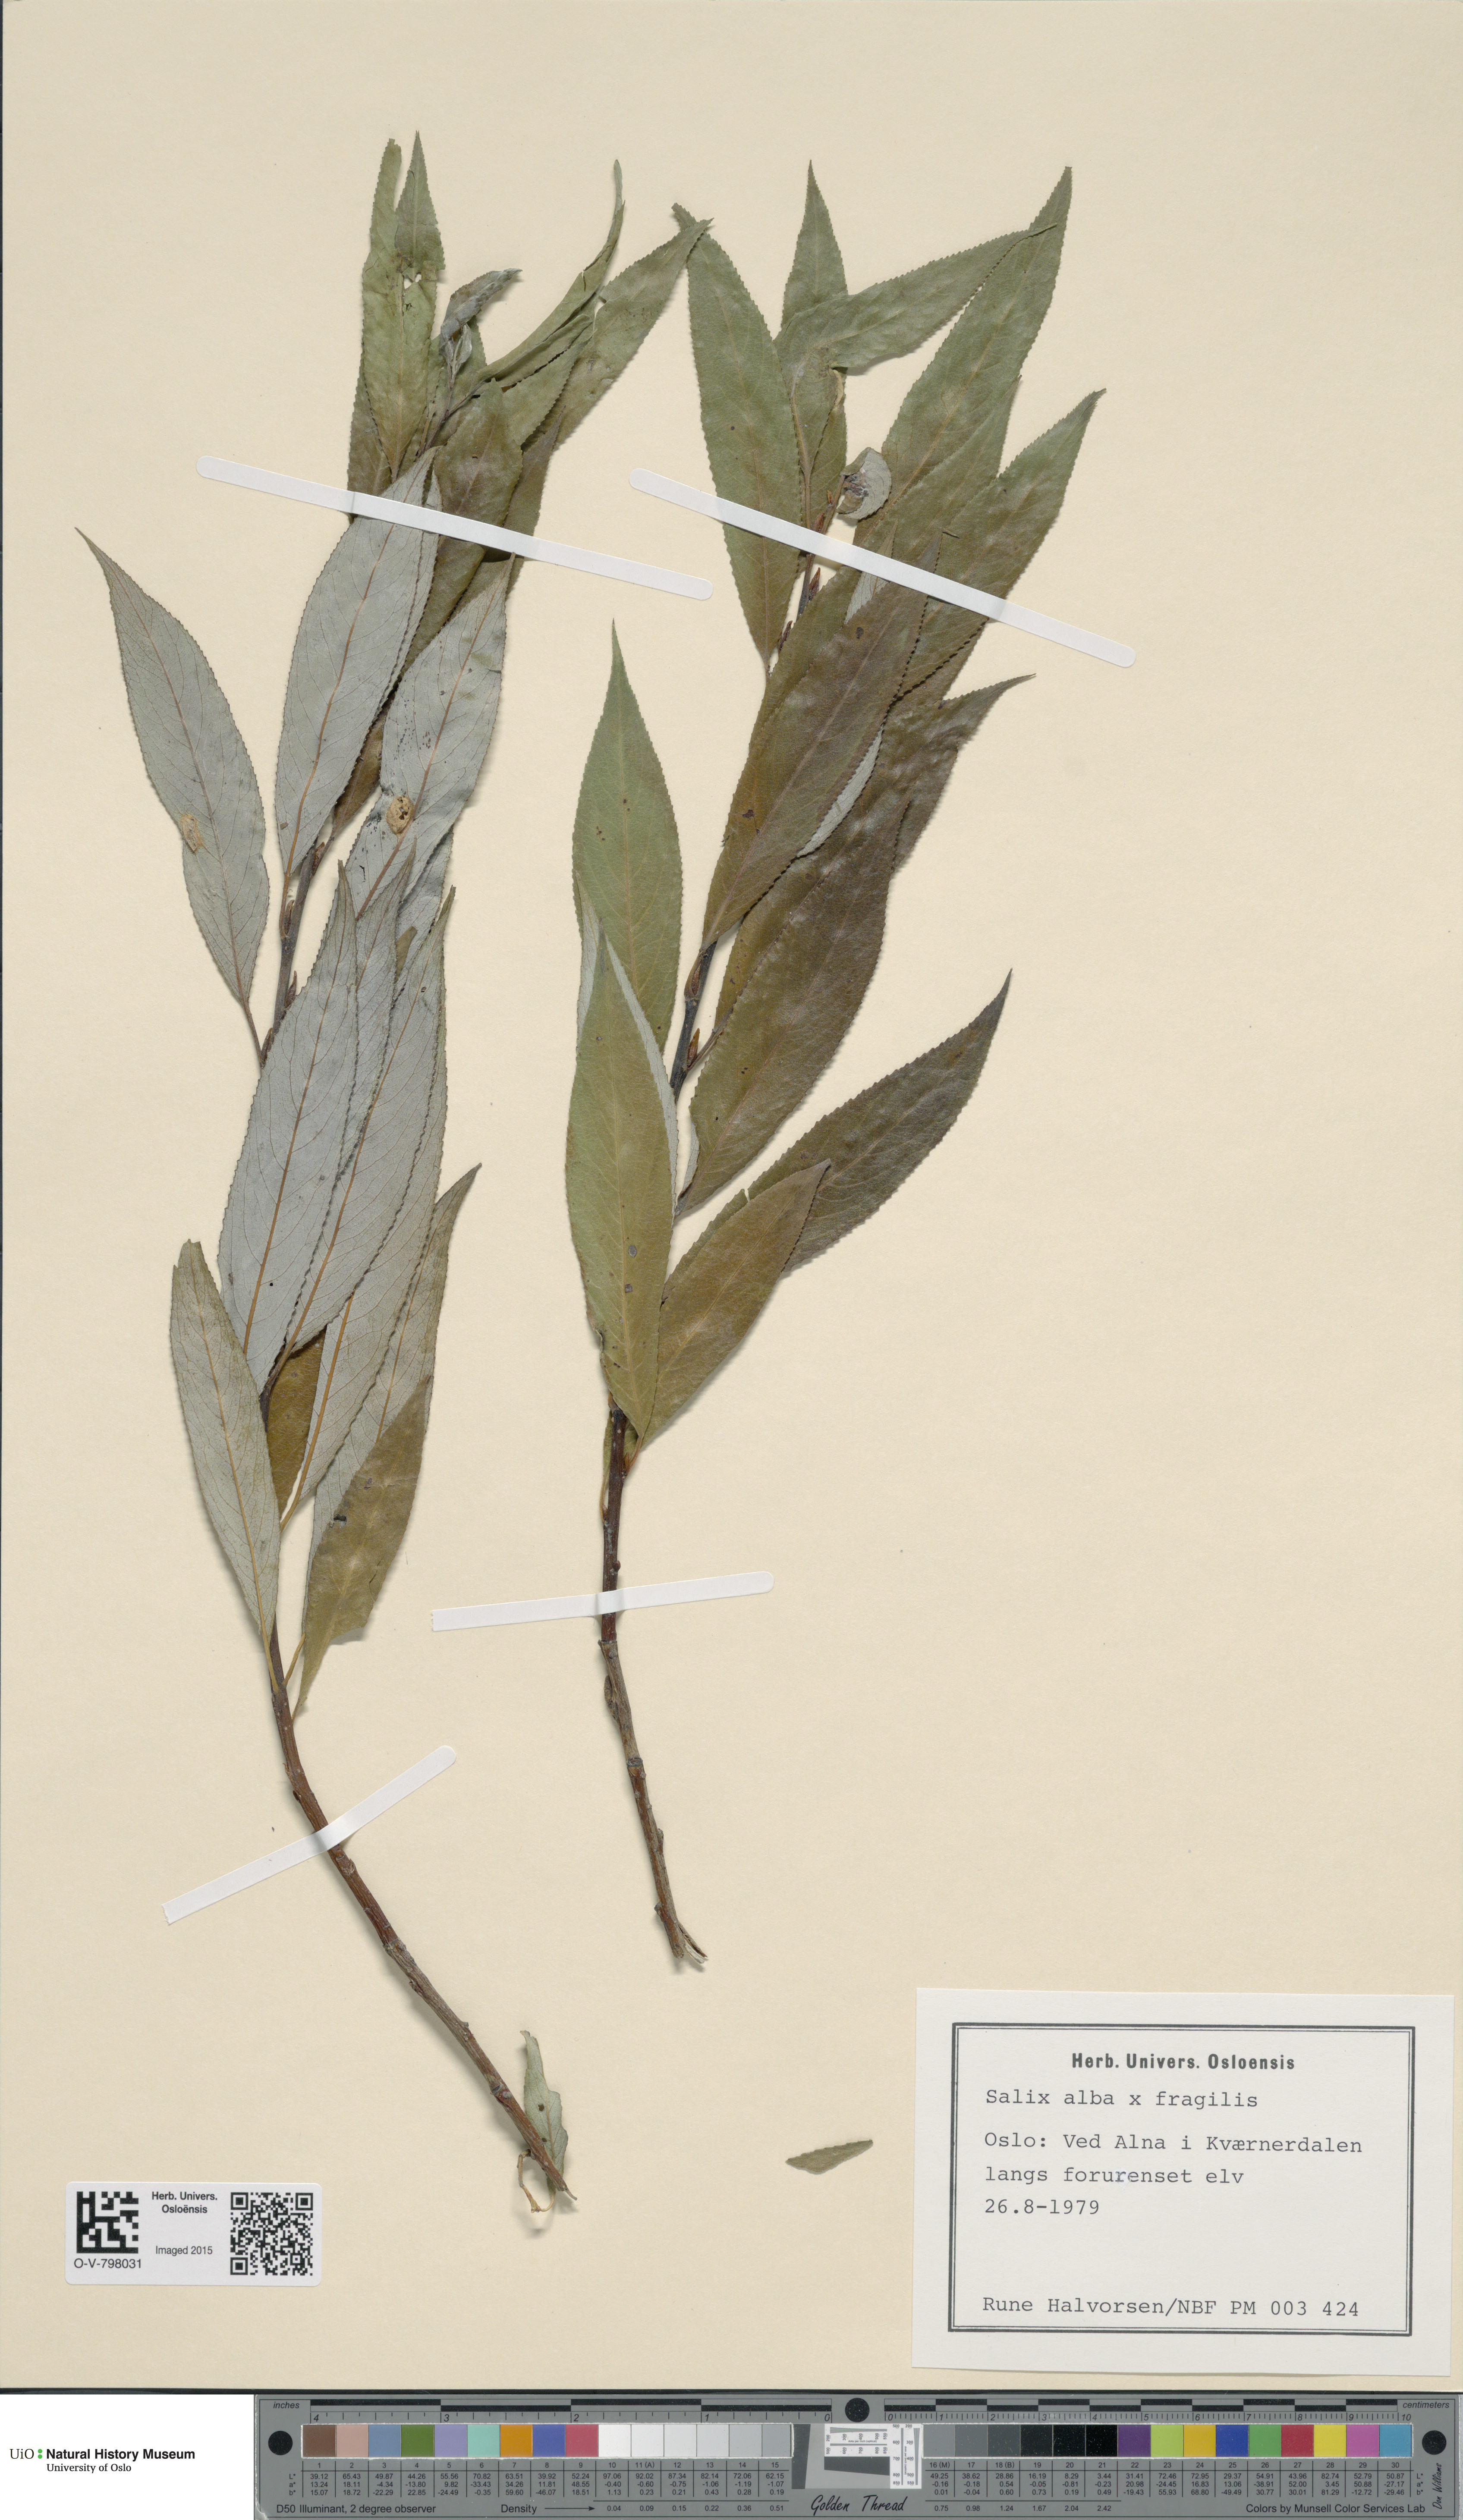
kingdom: Plantae
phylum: Tracheophyta
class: Magnoliopsida
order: Malpighiales
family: Salicaceae
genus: Salix
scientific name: Salix
